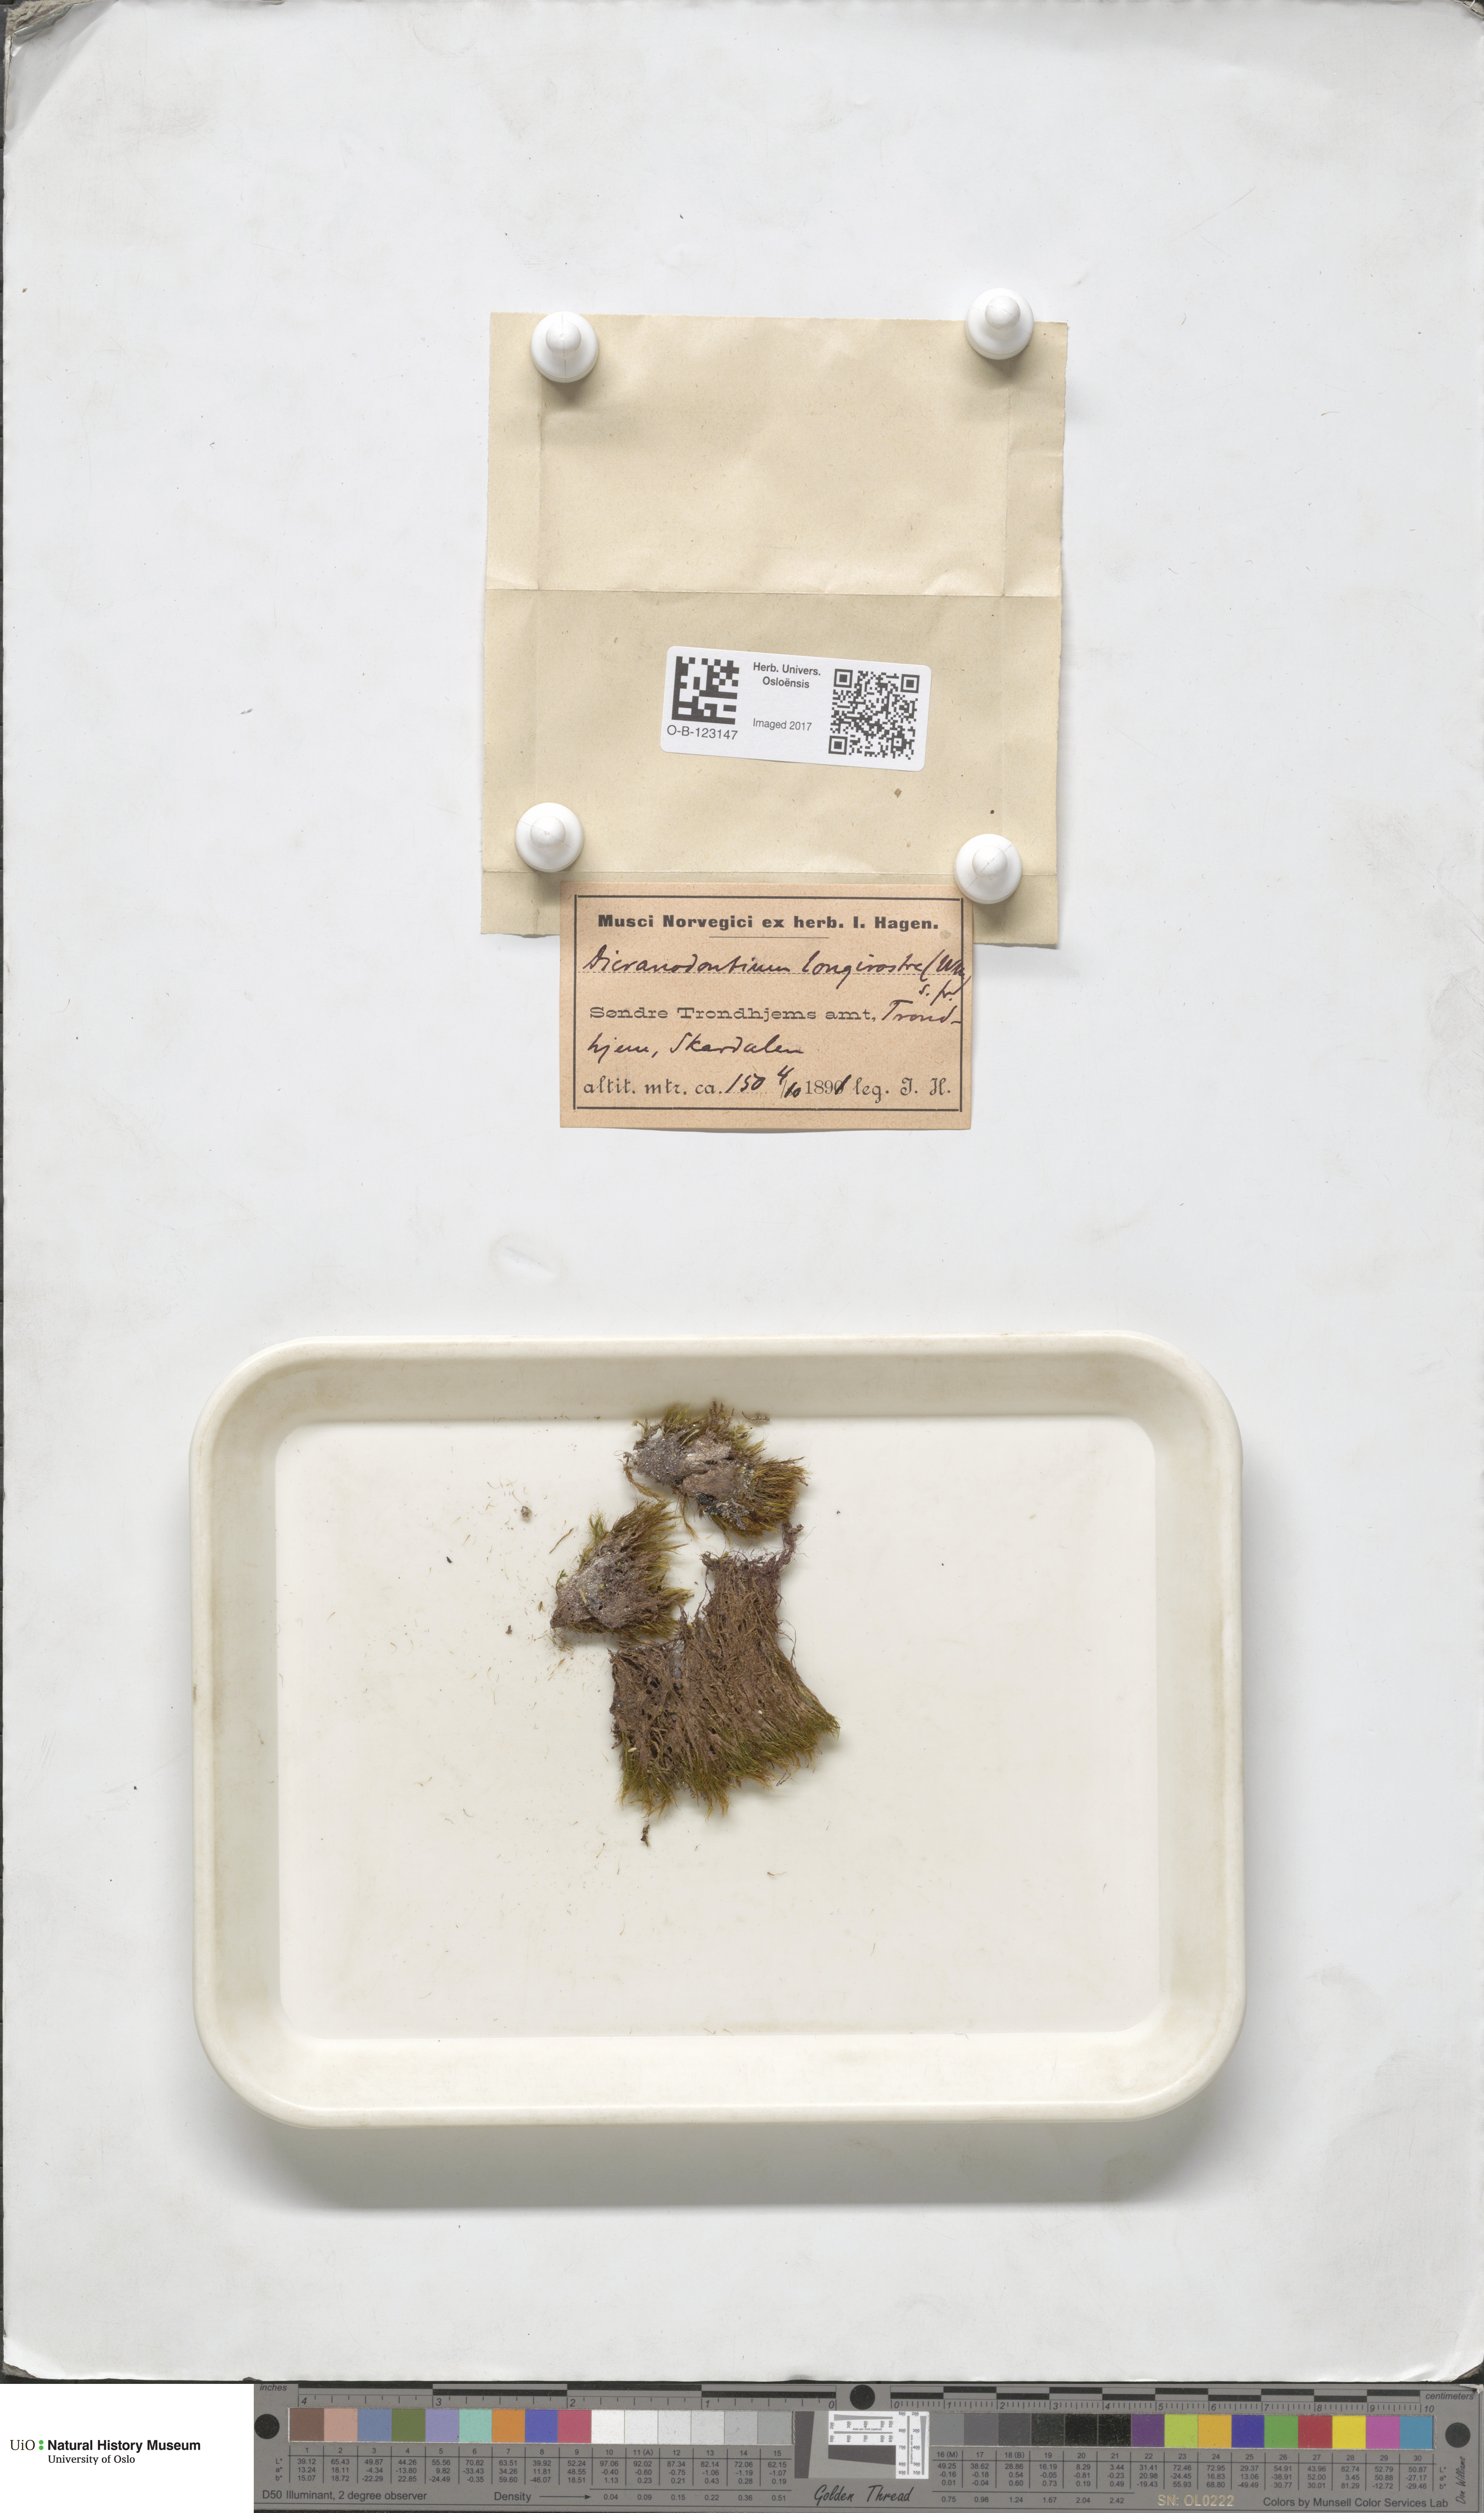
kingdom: Plantae
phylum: Bryophyta
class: Bryopsida
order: Dicranales
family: Leucobryaceae
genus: Dicranodontium
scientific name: Dicranodontium denudatum
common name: Beaked bow moss
